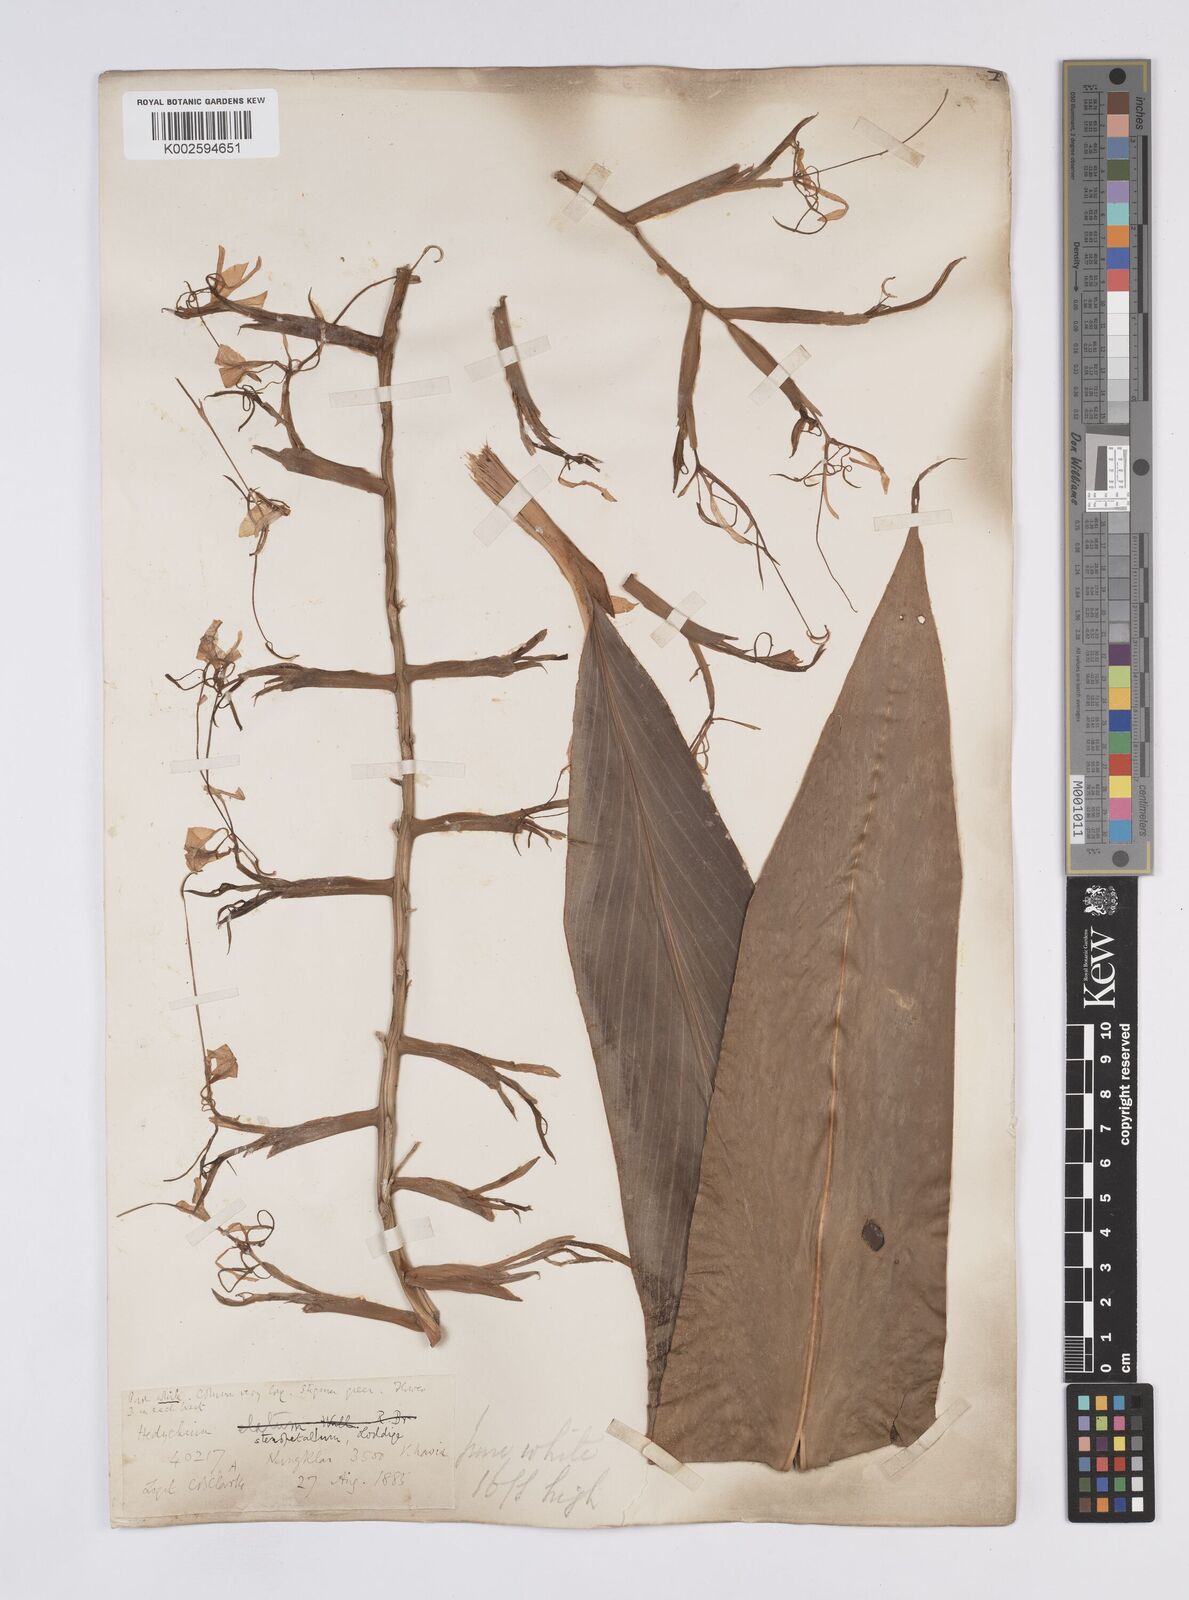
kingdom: Plantae
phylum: Tracheophyta
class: Liliopsida
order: Zingiberales
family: Zingiberaceae
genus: Hedychium
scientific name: Hedychium stenopetalum
